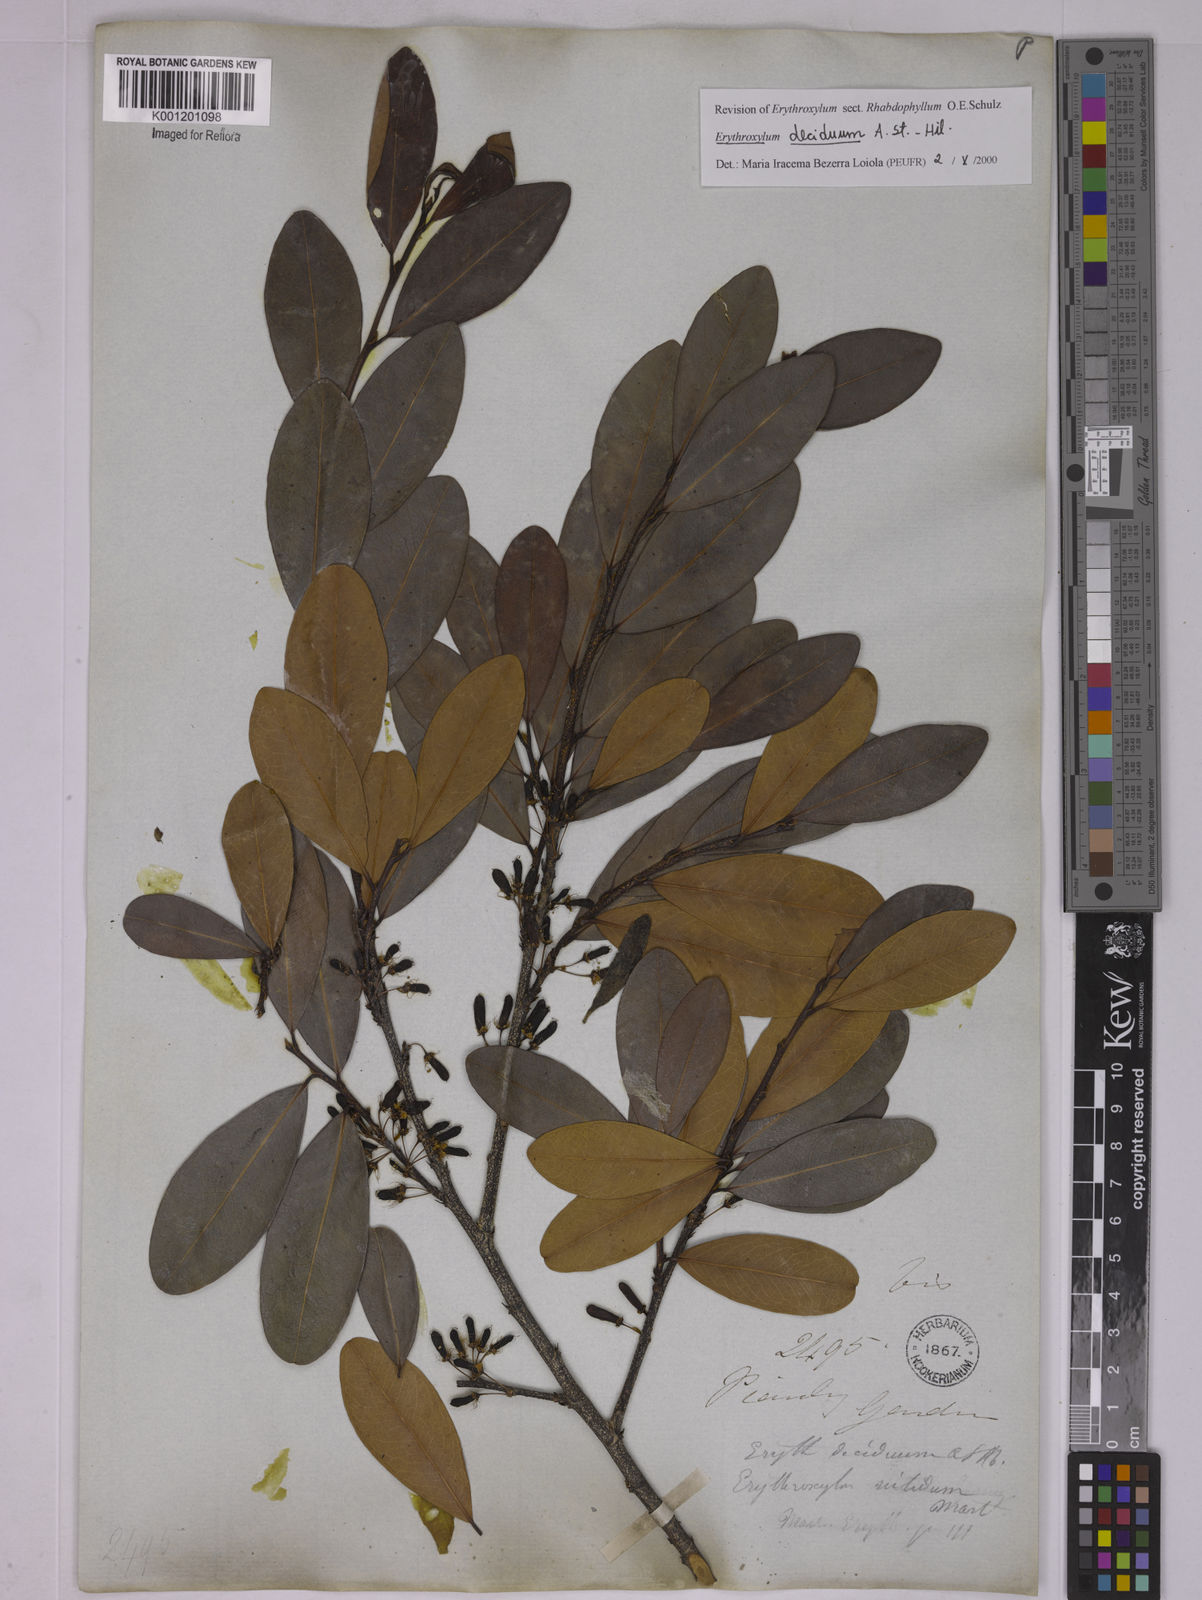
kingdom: Plantae
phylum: Tracheophyta
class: Magnoliopsida
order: Malpighiales
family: Erythroxylaceae
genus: Erythroxylum
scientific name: Erythroxylum deciduum
